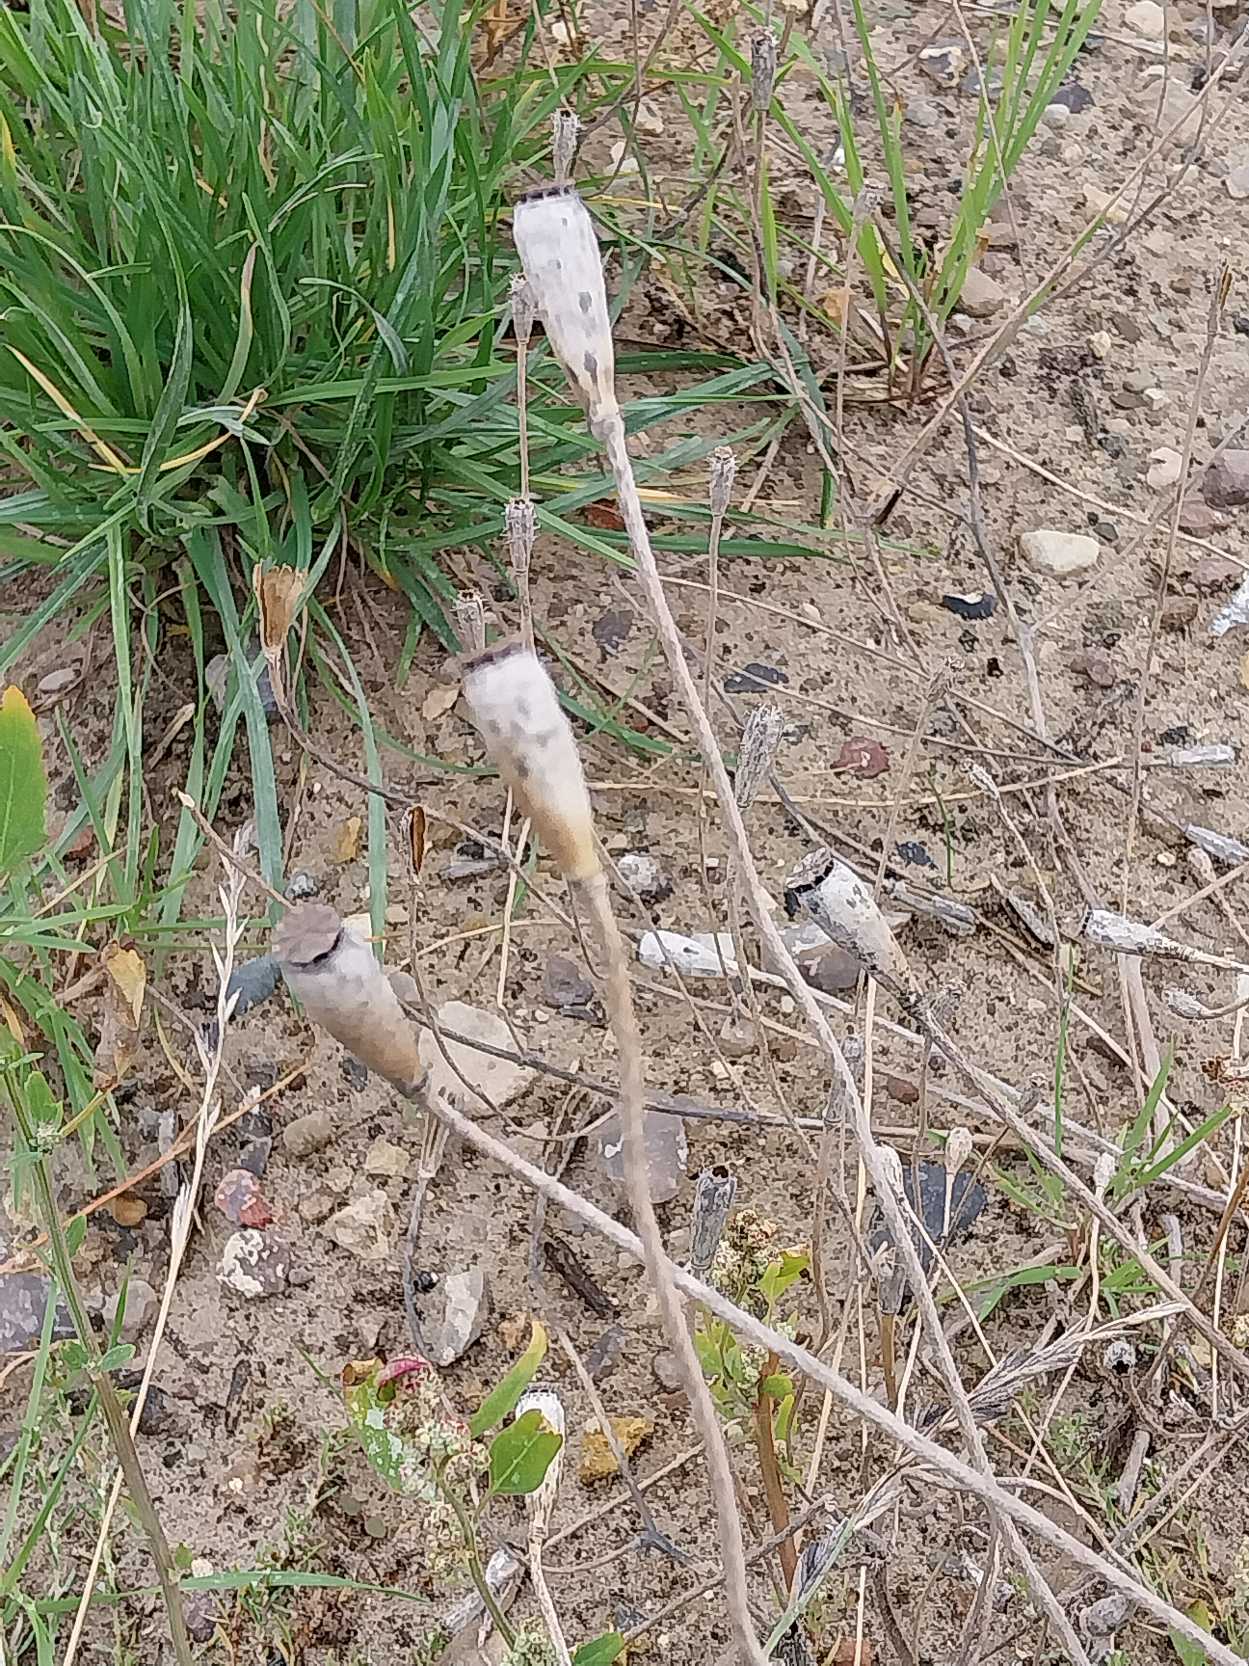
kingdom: Plantae
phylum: Tracheophyta
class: Magnoliopsida
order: Ranunculales
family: Papaveraceae
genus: Papaver
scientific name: Papaver dubium
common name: Gærde-valmue
